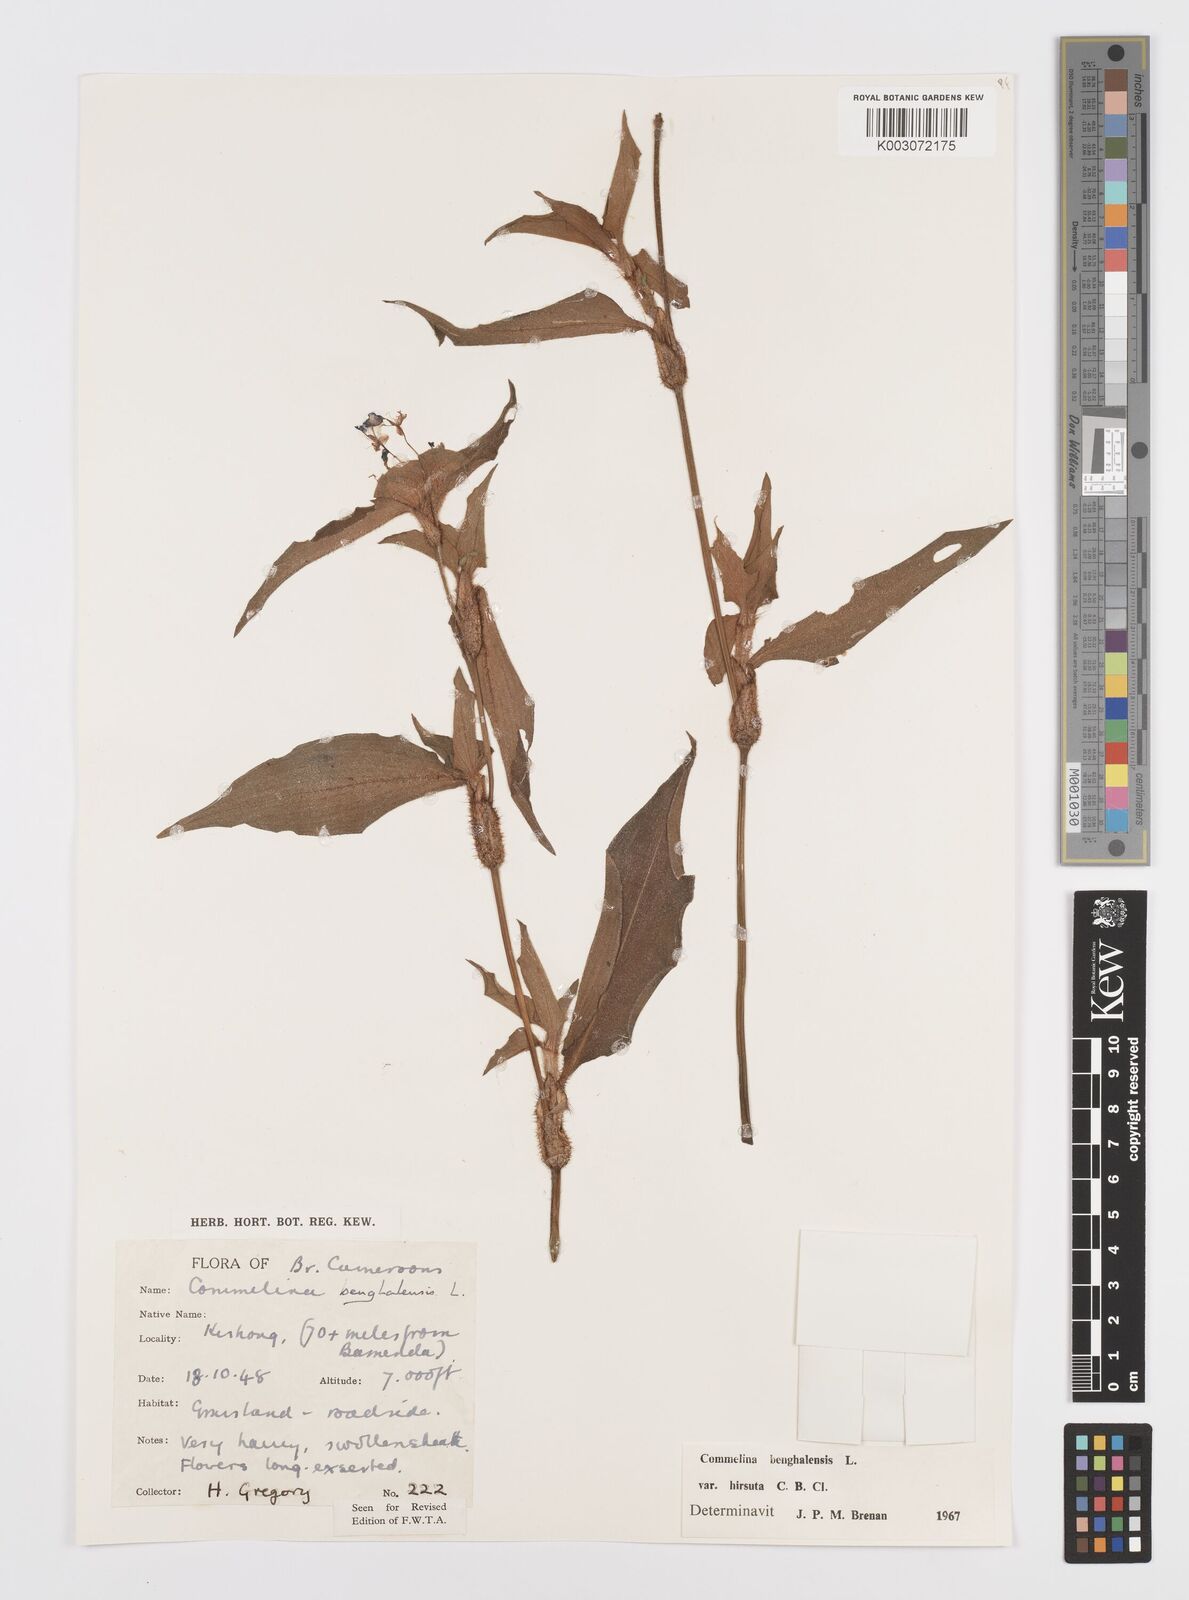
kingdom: Plantae
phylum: Tracheophyta
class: Liliopsida
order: Commelinales
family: Commelinaceae
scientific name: Commelinaceae
